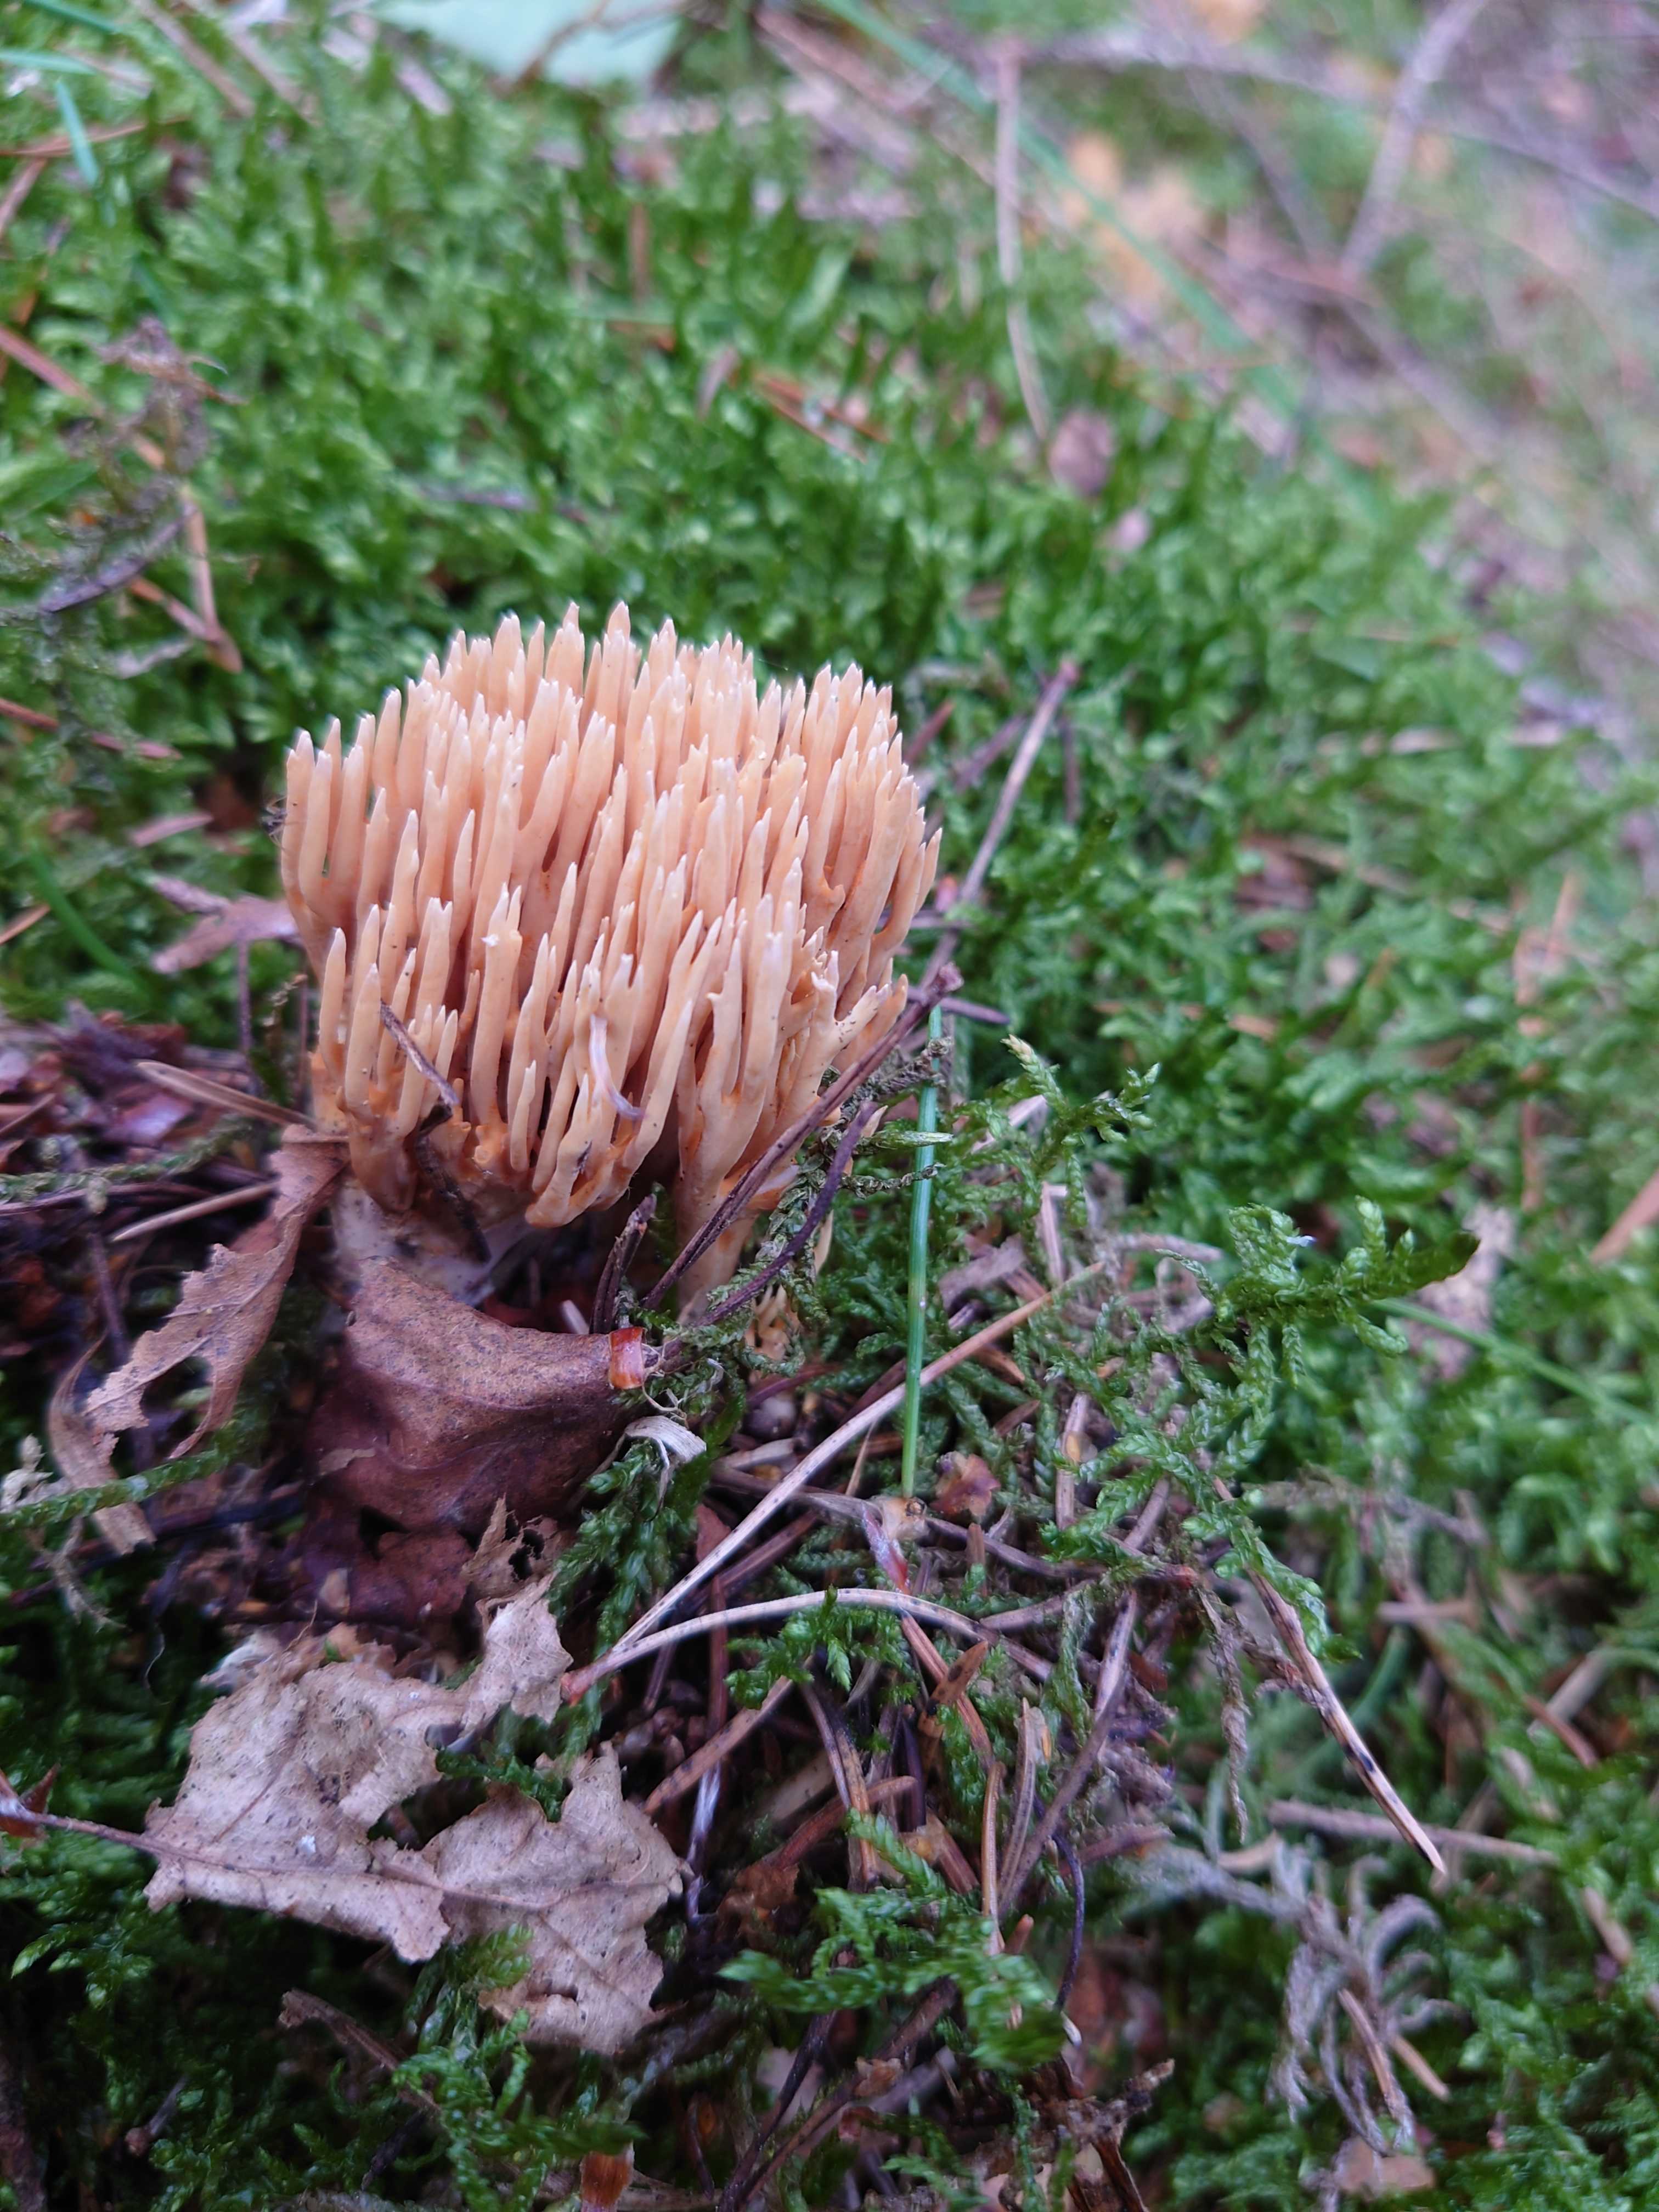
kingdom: Fungi
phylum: Basidiomycota
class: Agaricomycetes
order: Gomphales
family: Gomphaceae
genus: Phaeoclavulina
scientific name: Phaeoclavulina eumorpha
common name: gran-koralsvamp
